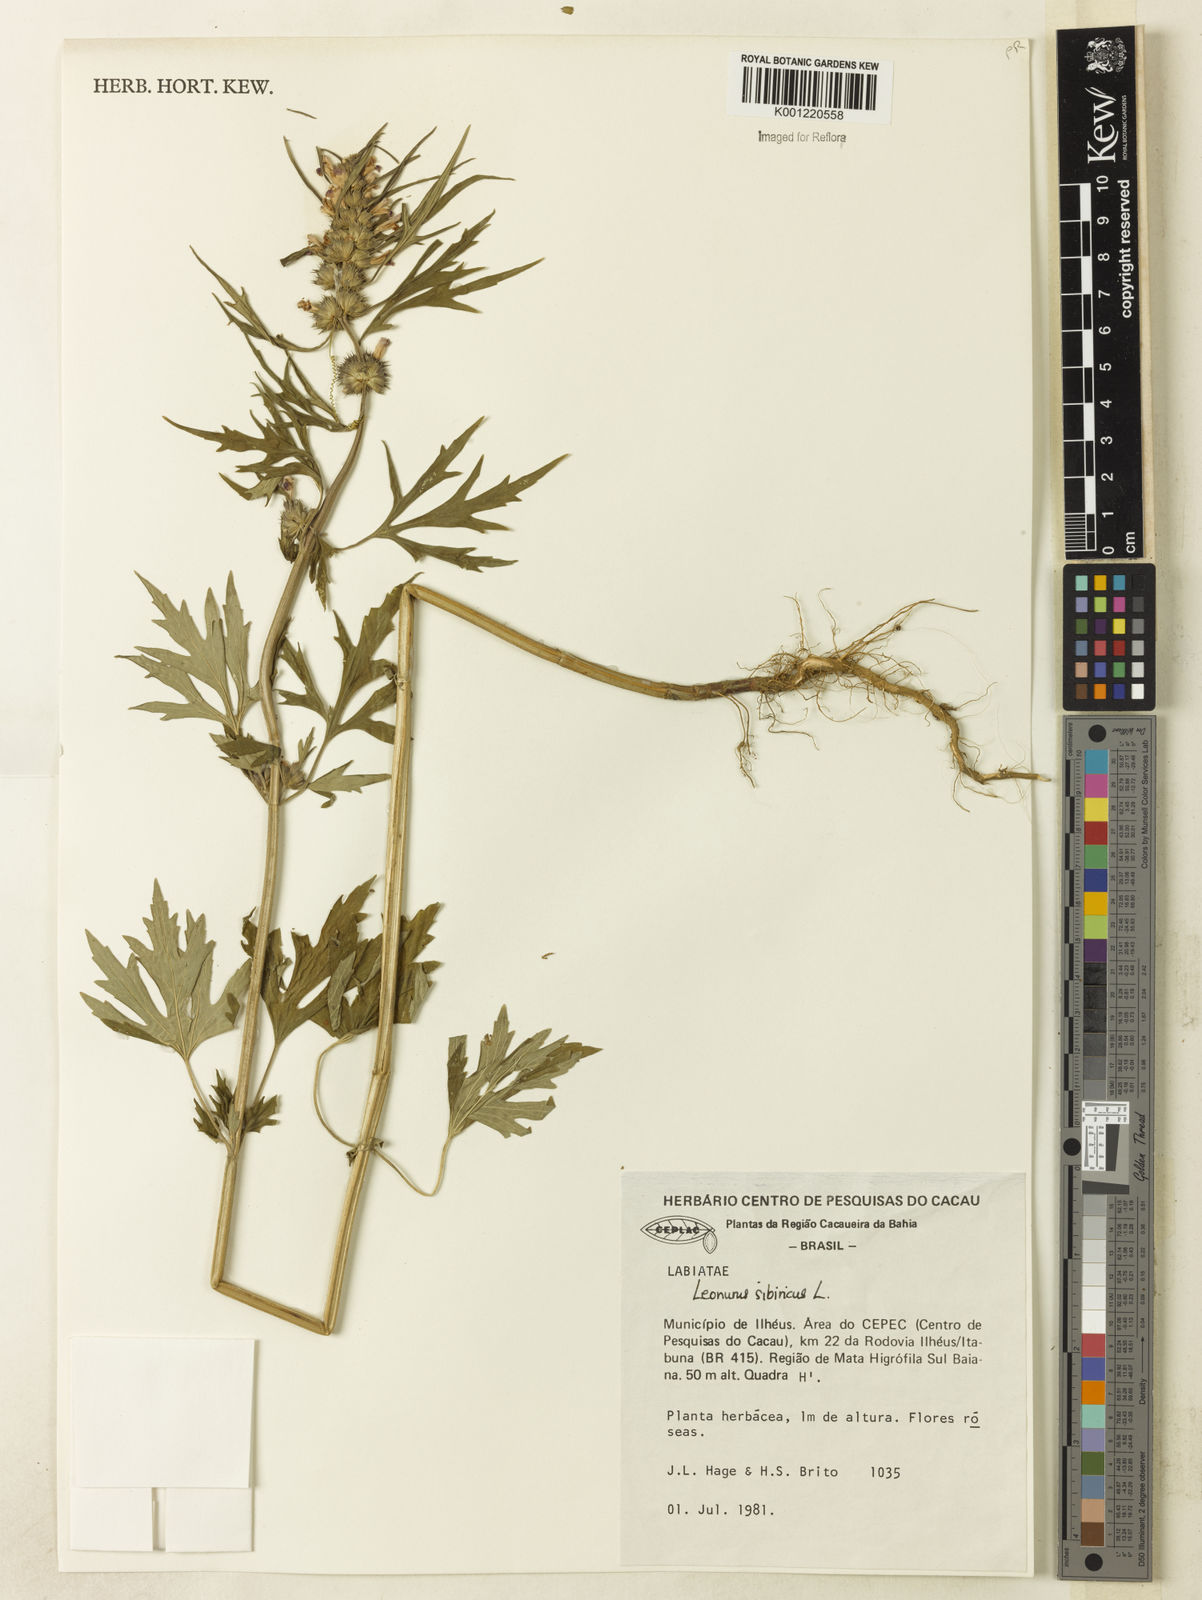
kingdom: Plantae
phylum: Tracheophyta
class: Magnoliopsida
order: Lamiales
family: Lamiaceae
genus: Leonurus
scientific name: Leonurus japonicus
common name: Honeyweed
